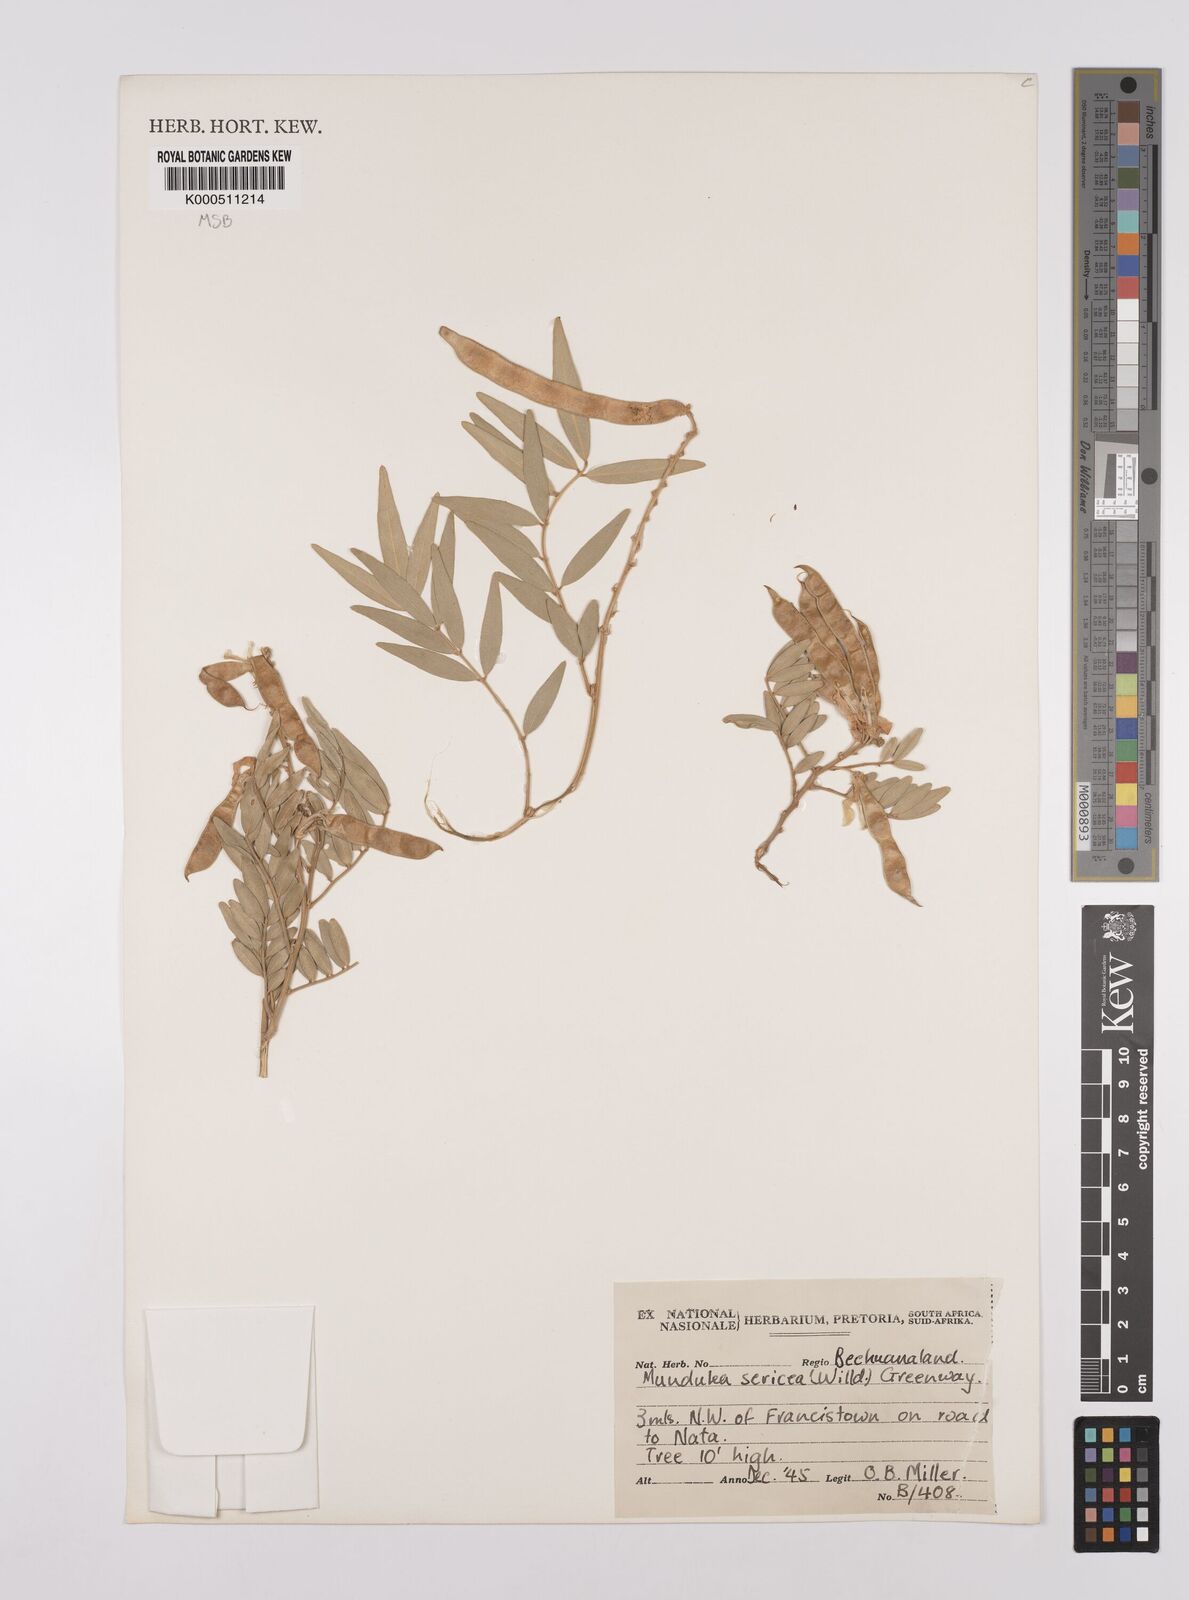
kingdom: Plantae
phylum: Tracheophyta
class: Magnoliopsida
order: Fabales
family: Fabaceae
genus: Mundulea
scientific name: Mundulea sericea
